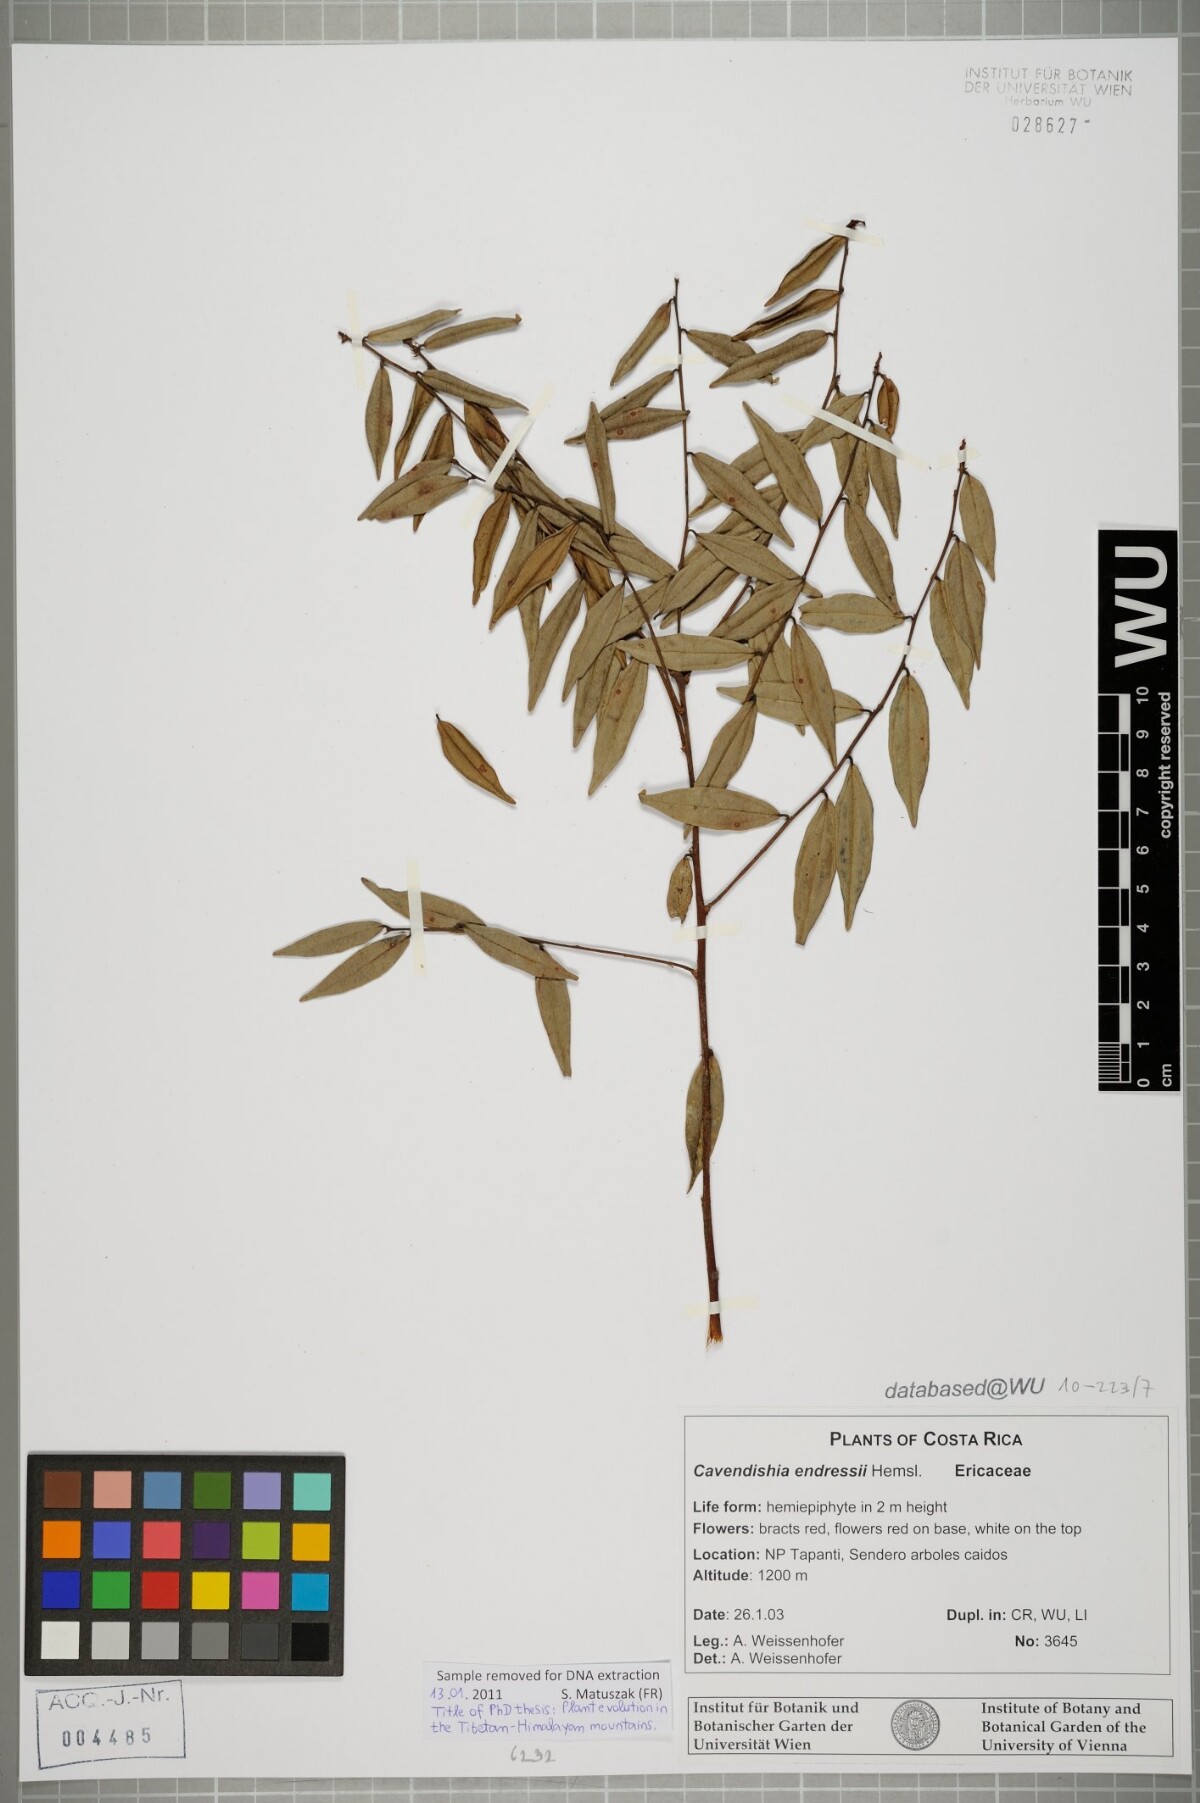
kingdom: Plantae
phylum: Tracheophyta
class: Magnoliopsida
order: Ericales
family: Ericaceae
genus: Cavendishia
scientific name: Cavendishia endresii
